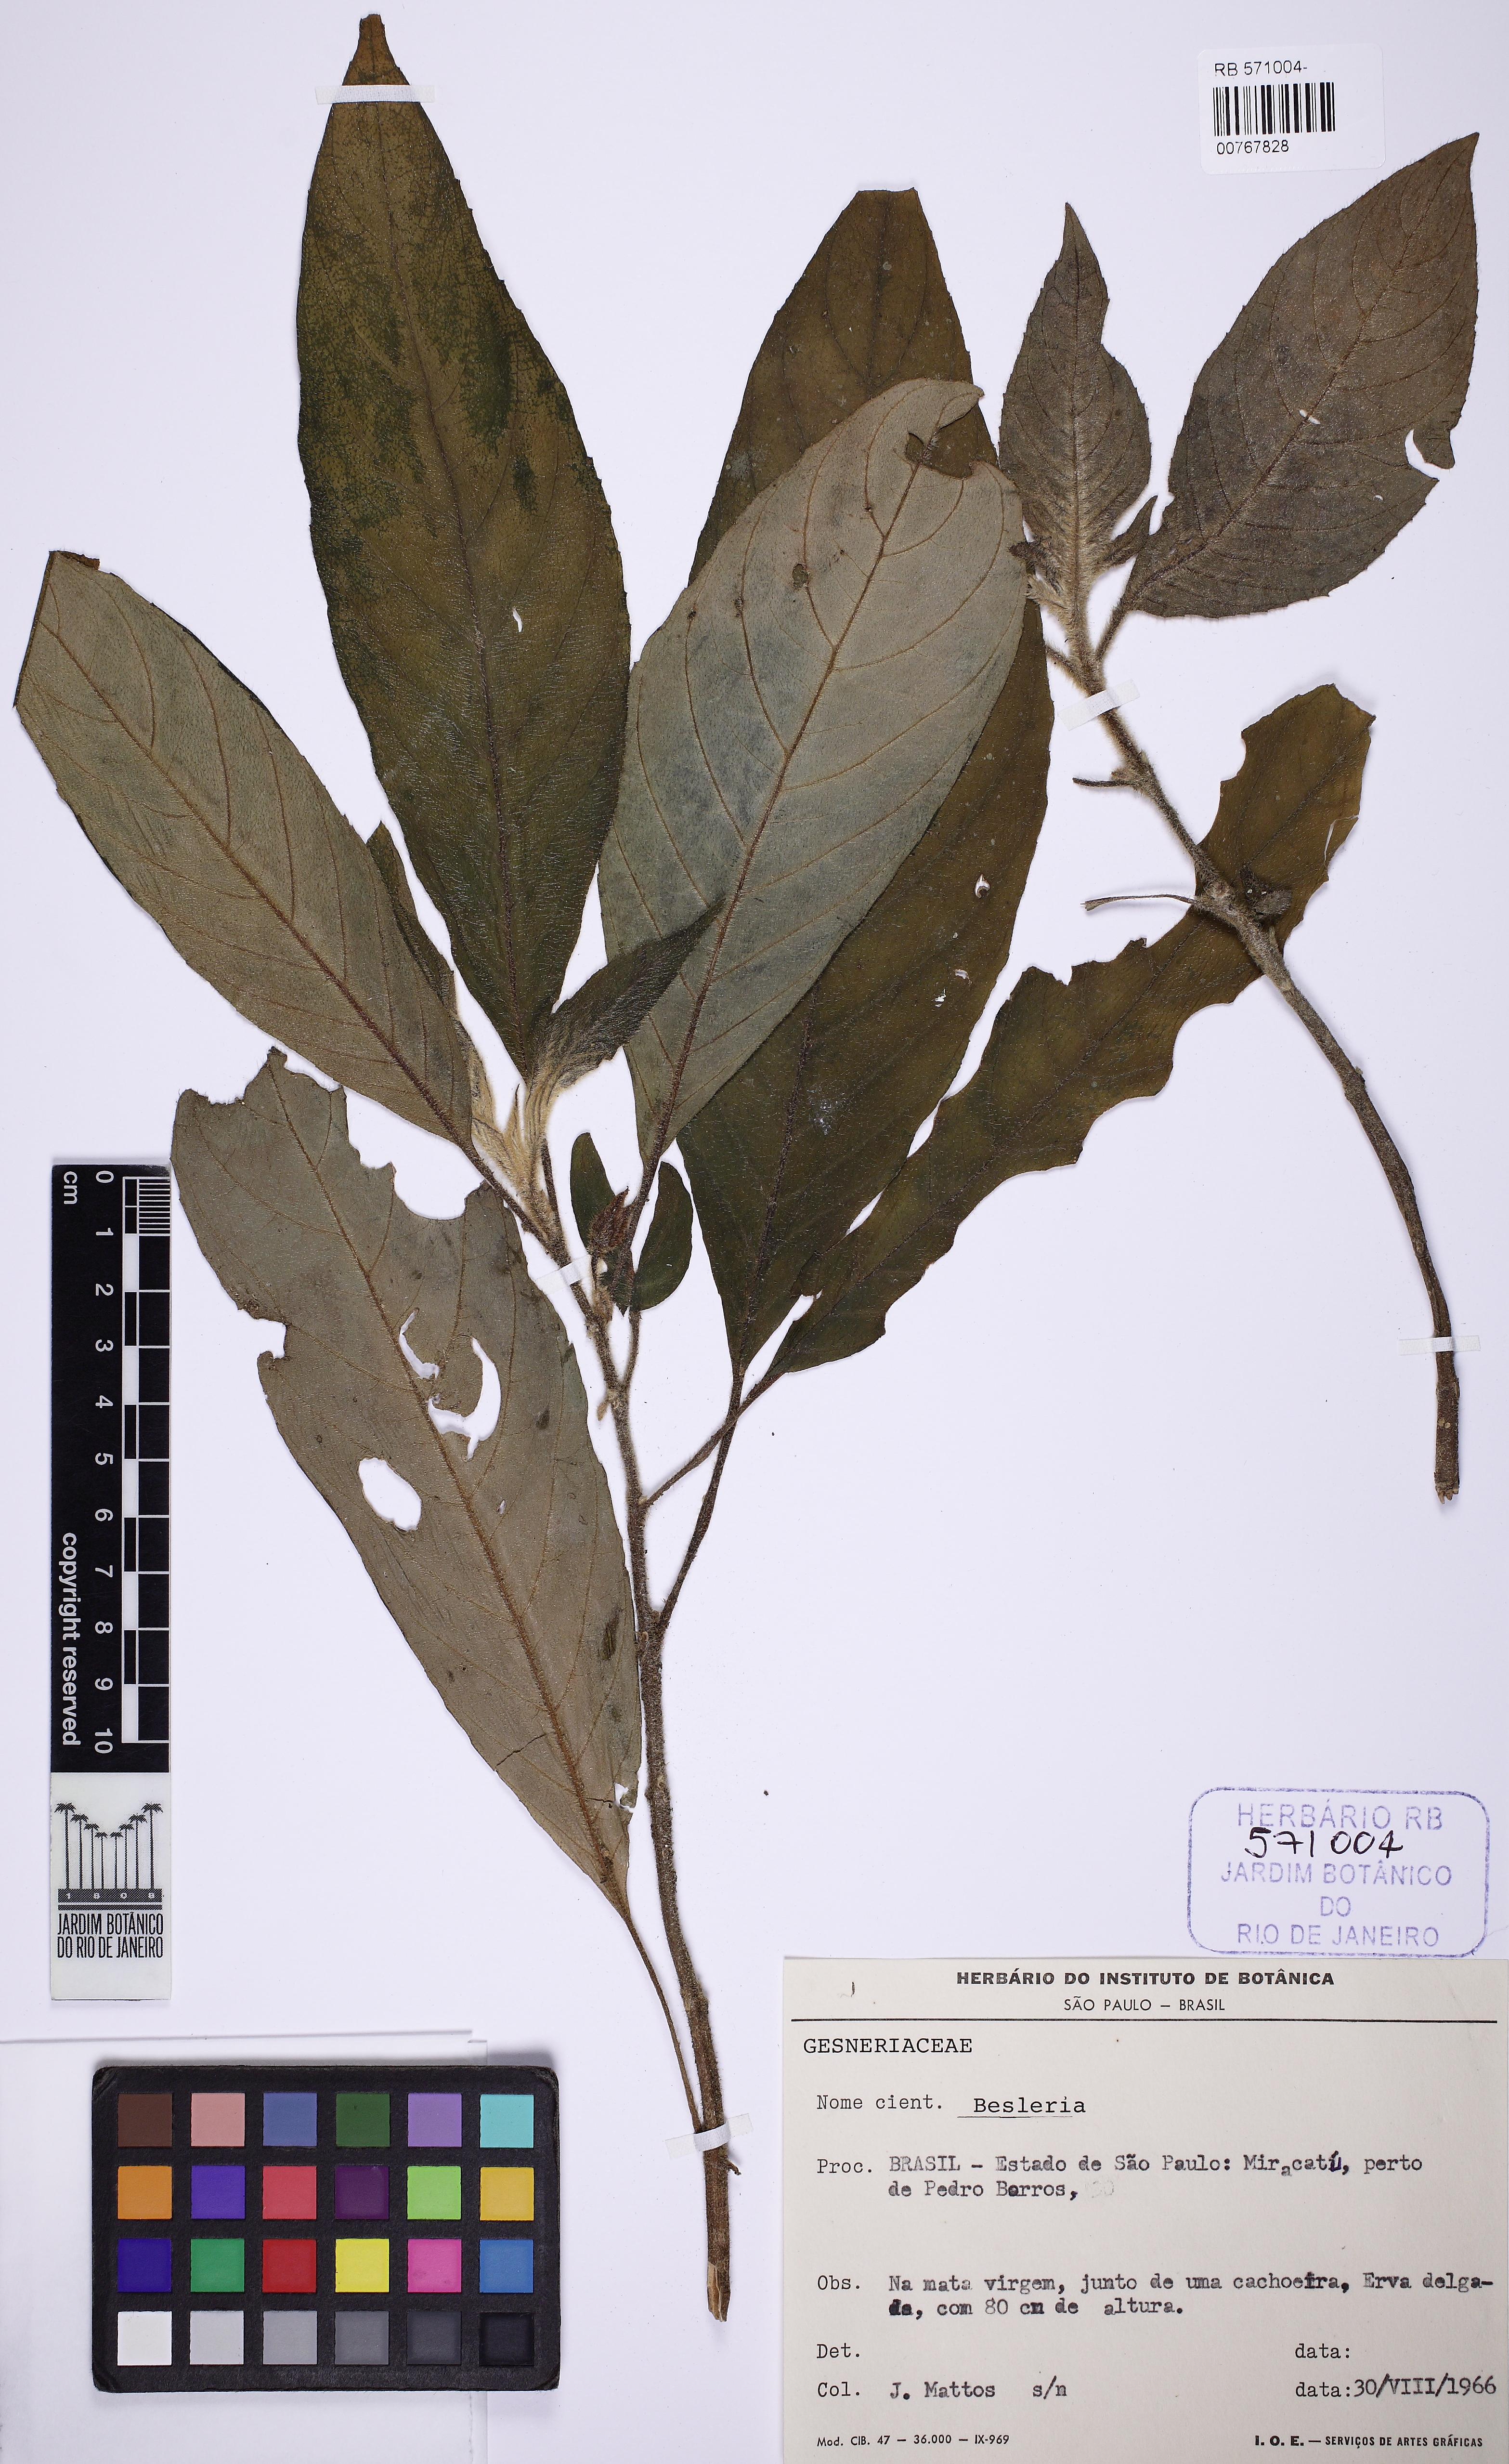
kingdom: Plantae
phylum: Tracheophyta
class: Magnoliopsida
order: Lamiales
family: Gesneriaceae
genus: Besleria
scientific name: Besleria diabolica
